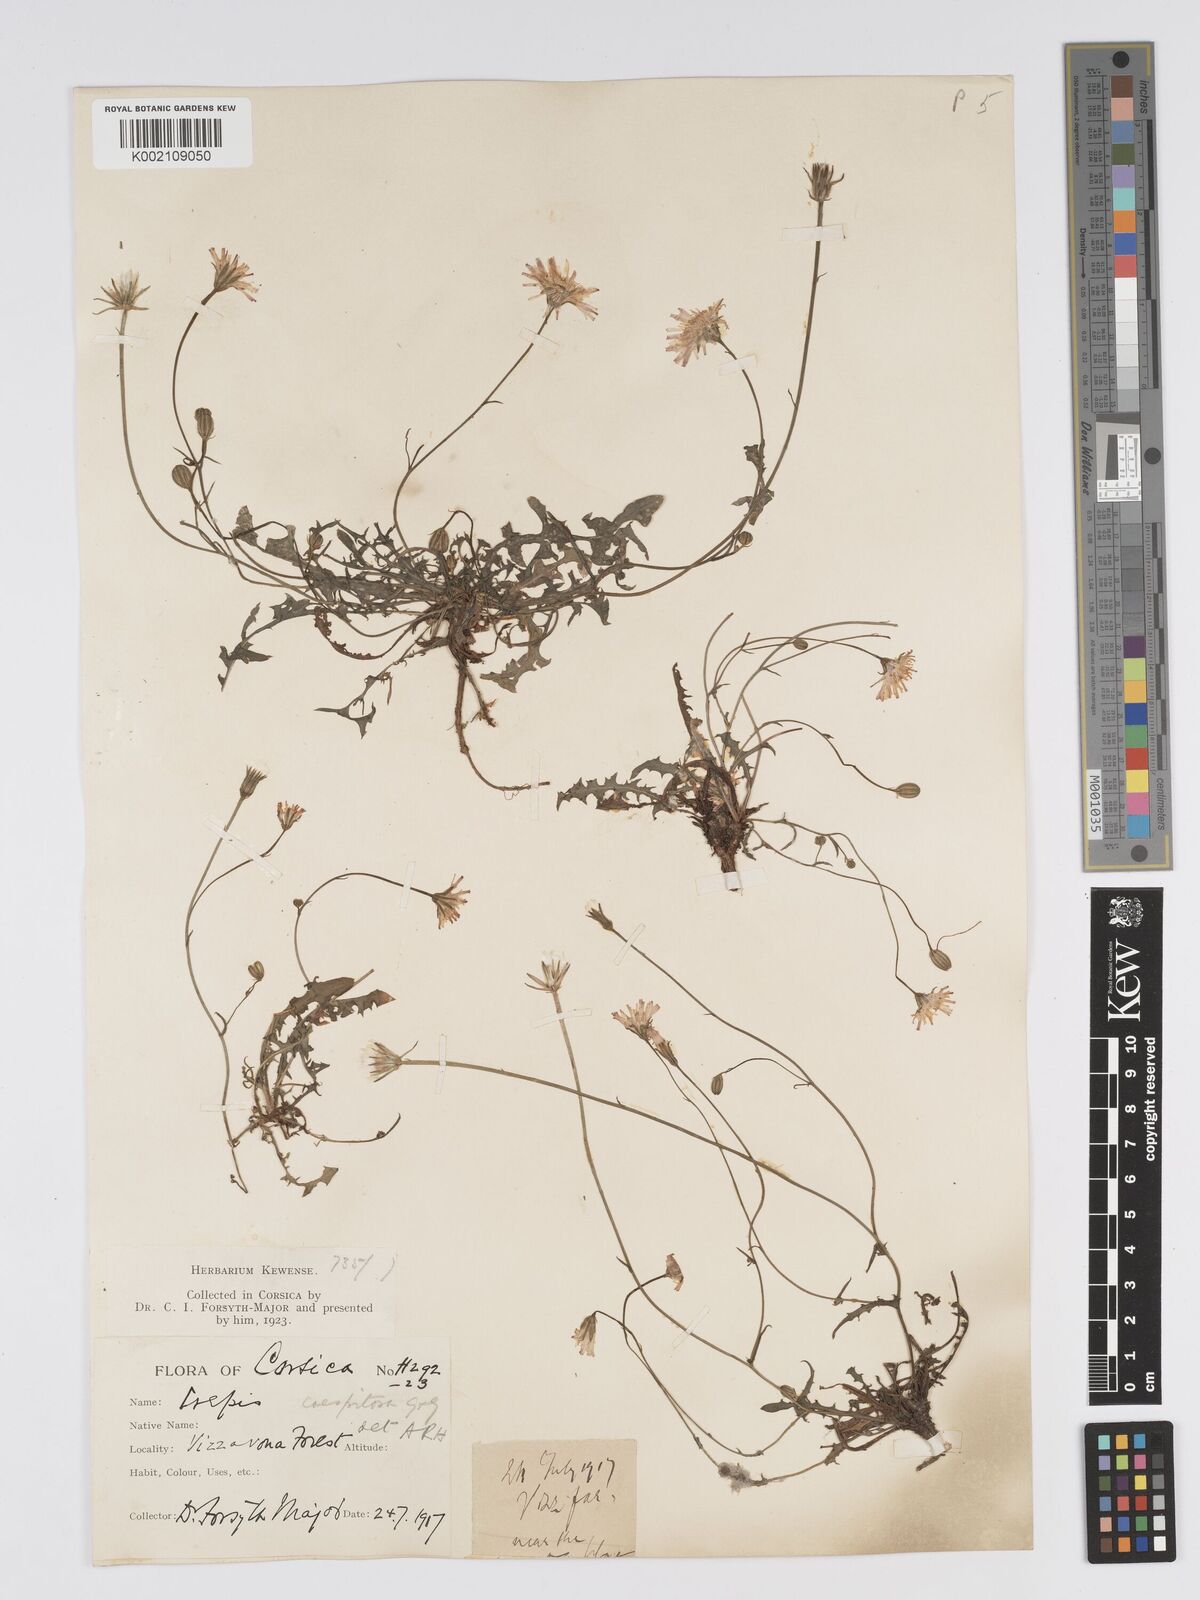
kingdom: Plantae
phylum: Tracheophyta
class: Magnoliopsida
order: Asterales
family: Asteraceae
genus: Crepis
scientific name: Crepis bellidifolia
